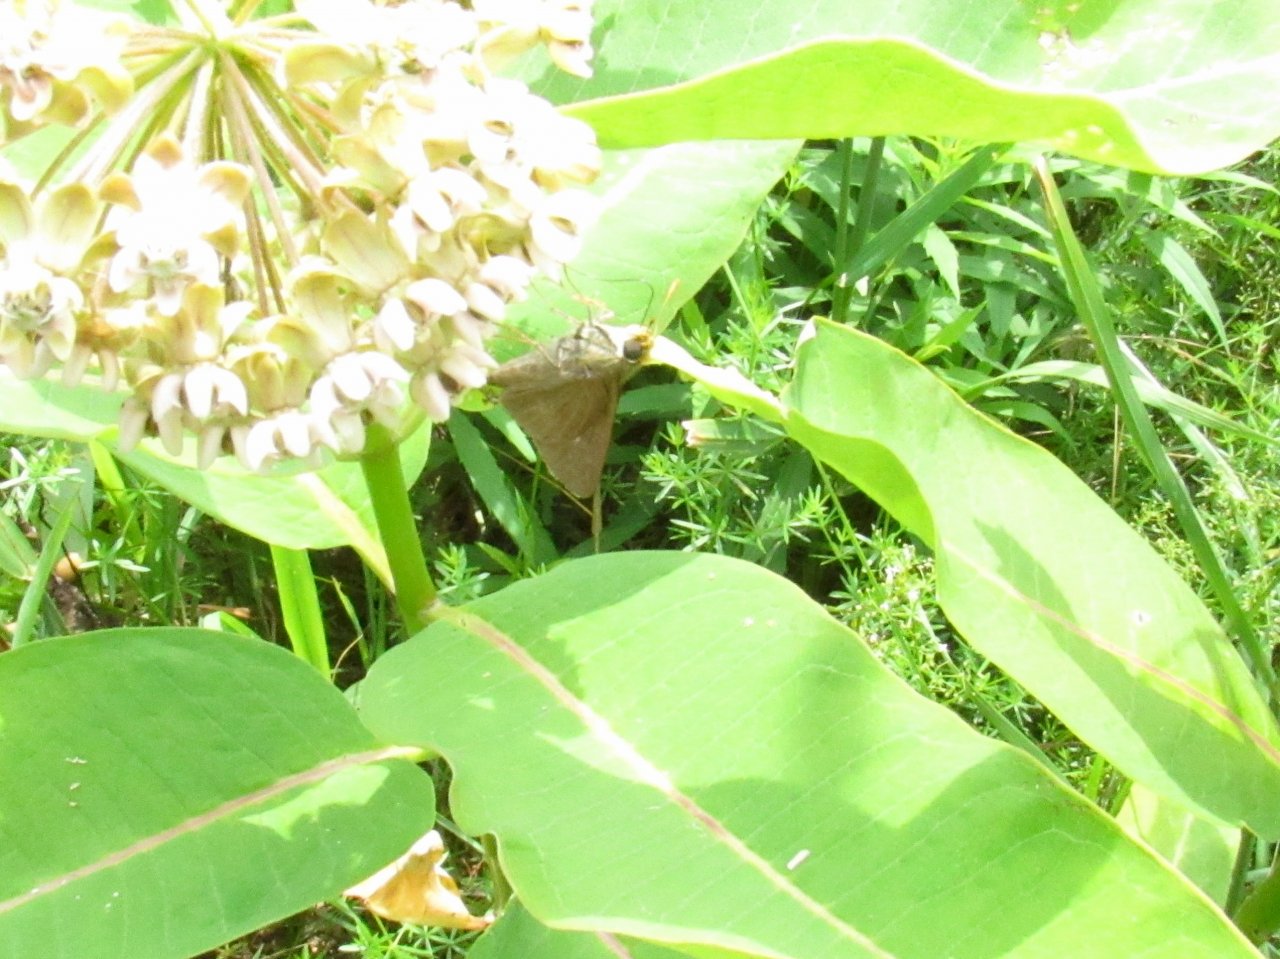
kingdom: Animalia
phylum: Arthropoda
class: Insecta
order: Lepidoptera
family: Hesperiidae
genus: Euphyes
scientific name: Euphyes vestris
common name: Dun Skipper
